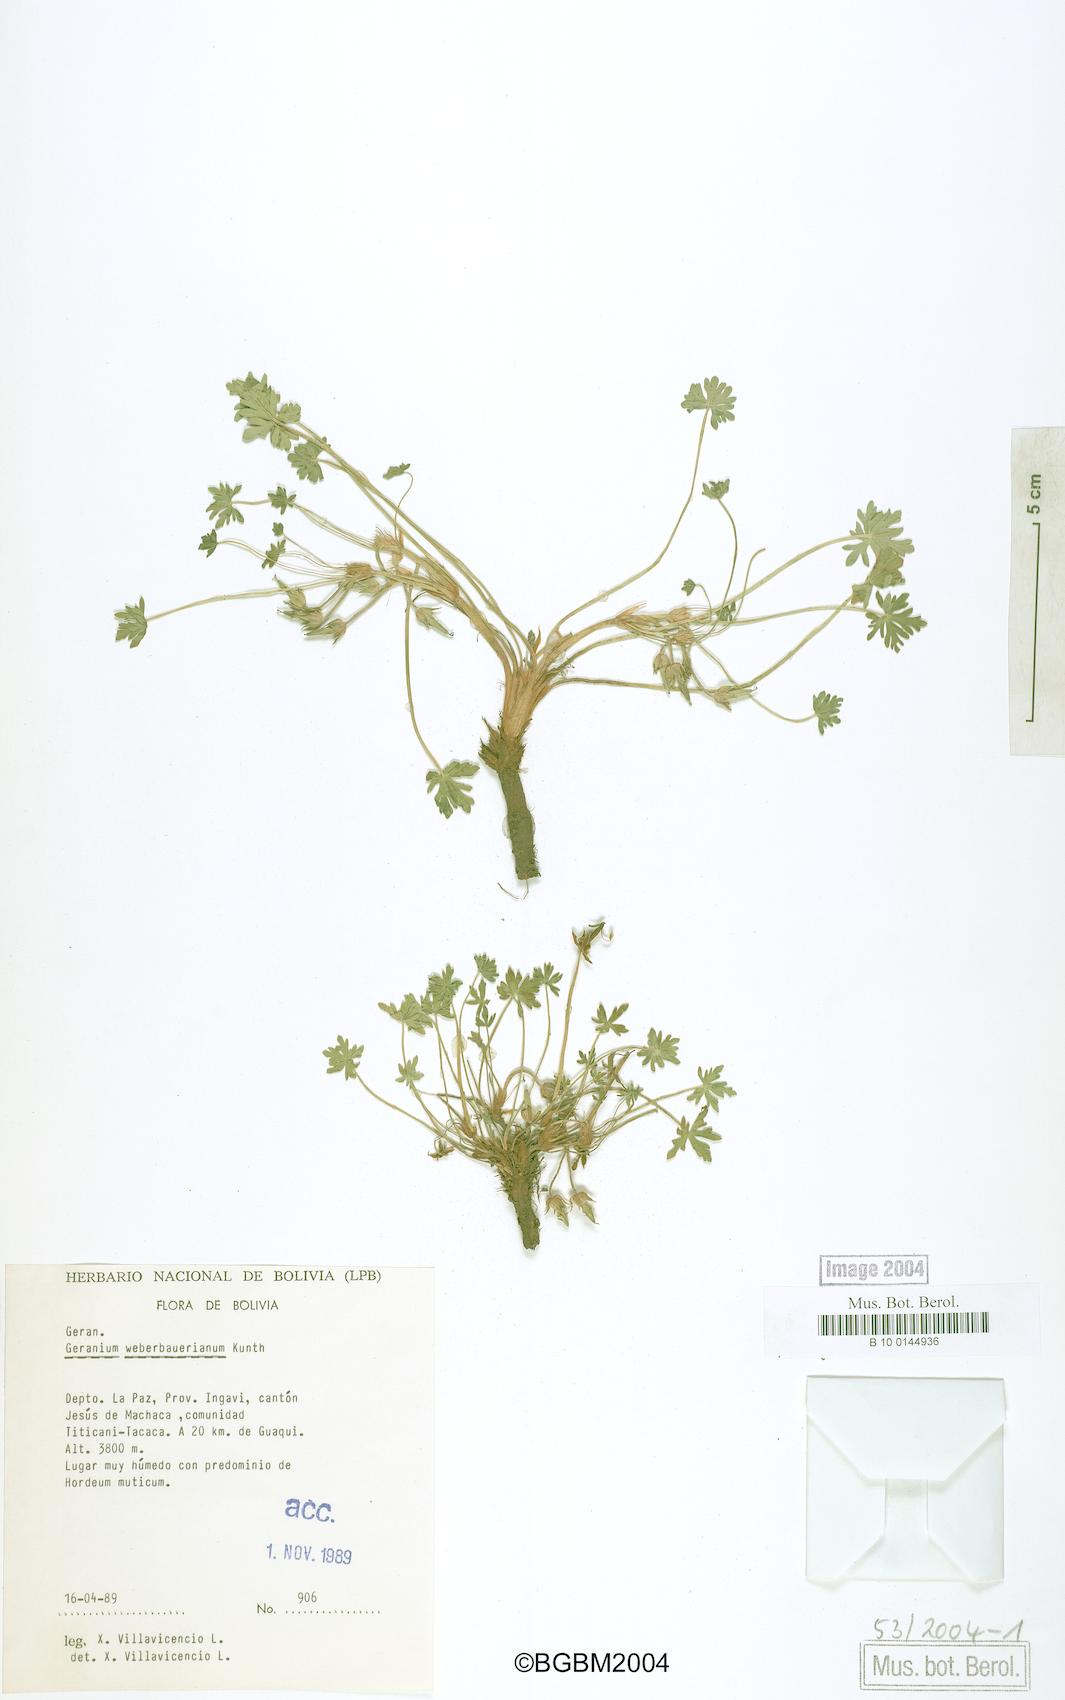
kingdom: Plantae
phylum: Tracheophyta
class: Magnoliopsida
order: Geraniales
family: Geraniaceae
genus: Geranium
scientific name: Geranium sessiliflorum
